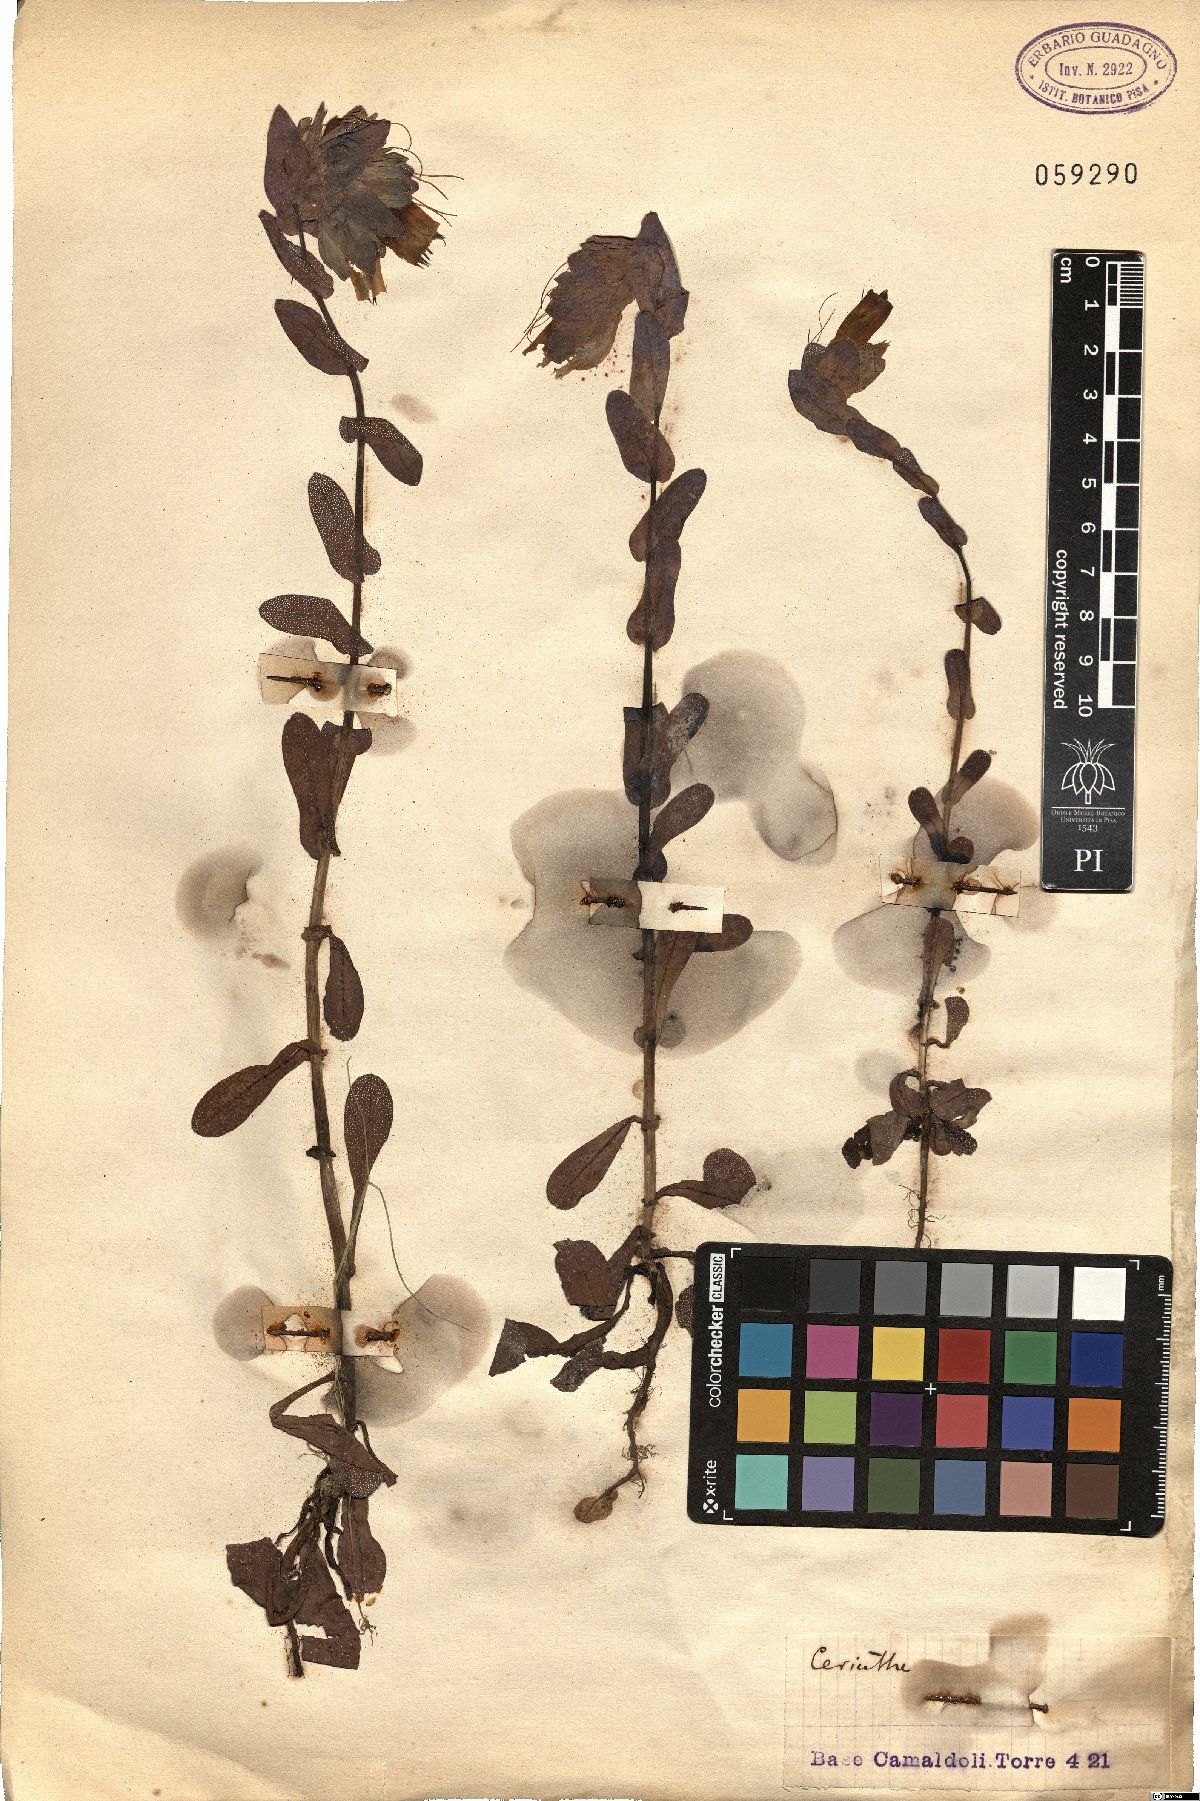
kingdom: Plantae
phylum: Tracheophyta
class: Magnoliopsida
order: Boraginales
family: Boraginaceae
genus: Cerinthe
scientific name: Cerinthe
